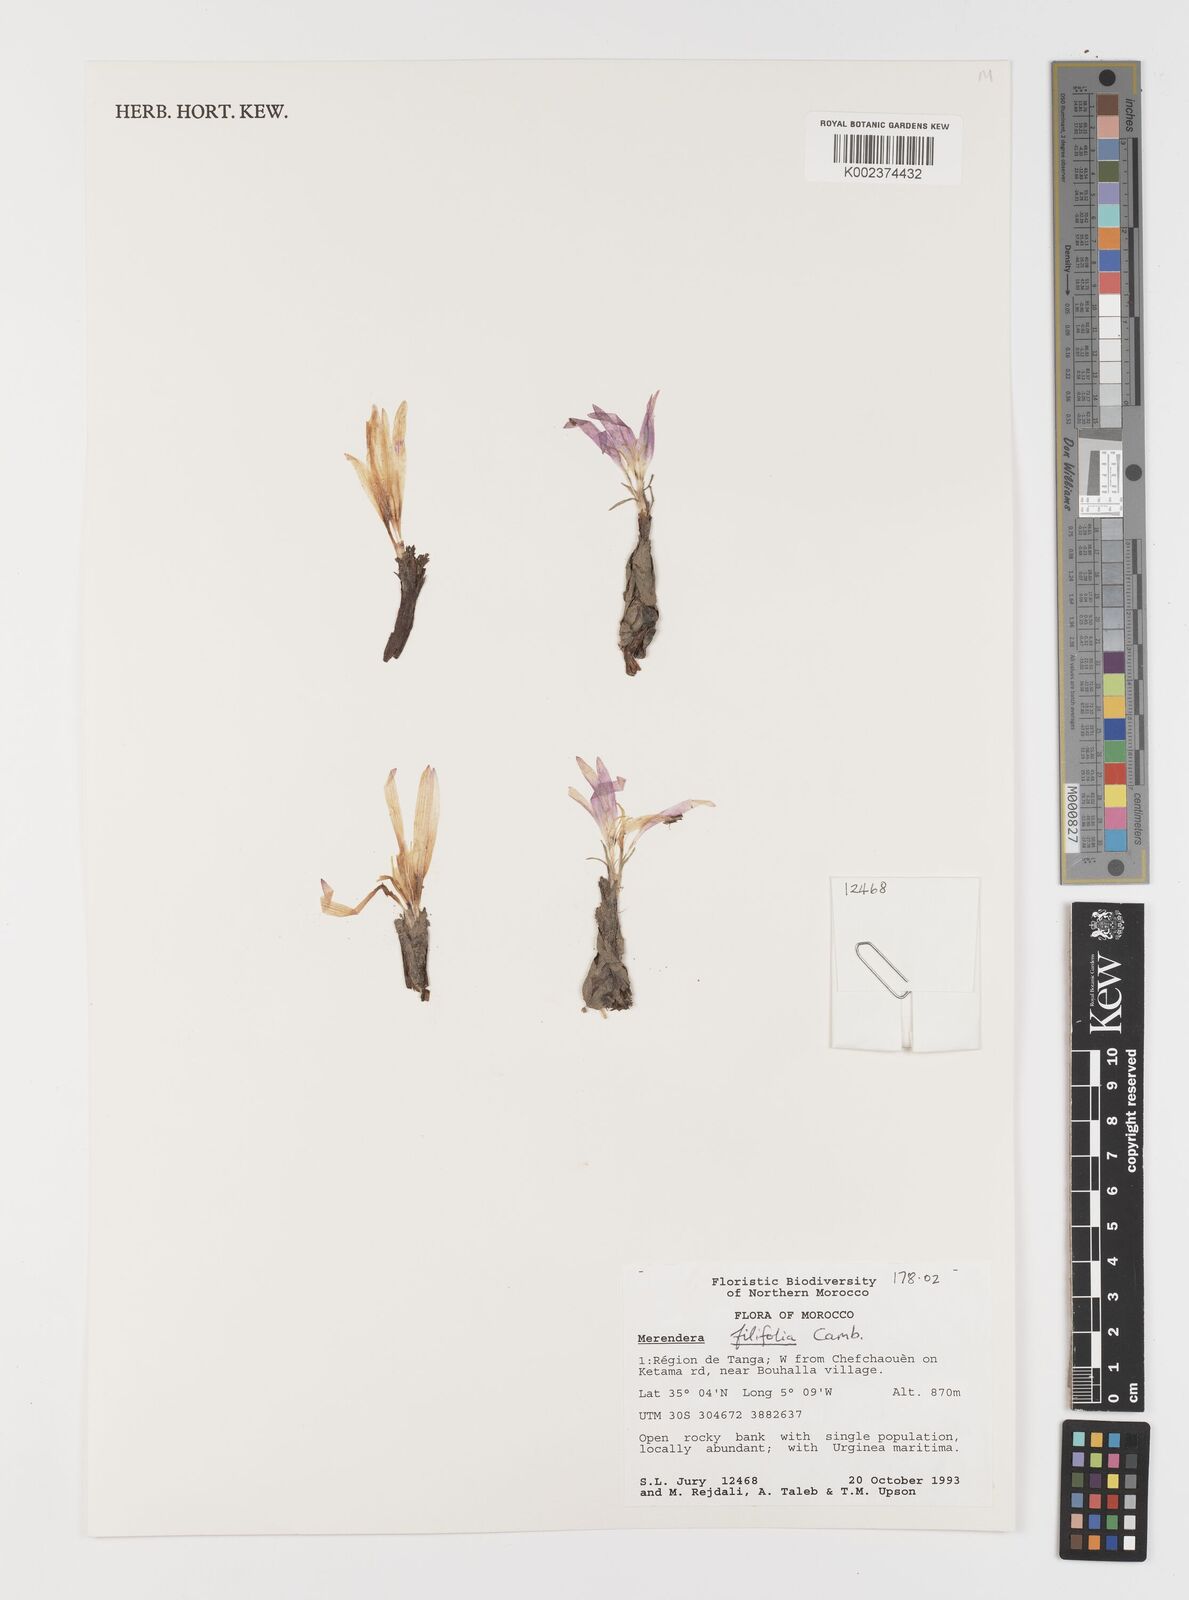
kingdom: Plantae
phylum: Tracheophyta
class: Liliopsida
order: Liliales
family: Colchicaceae
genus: Colchicum
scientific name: Colchicum filifolium
